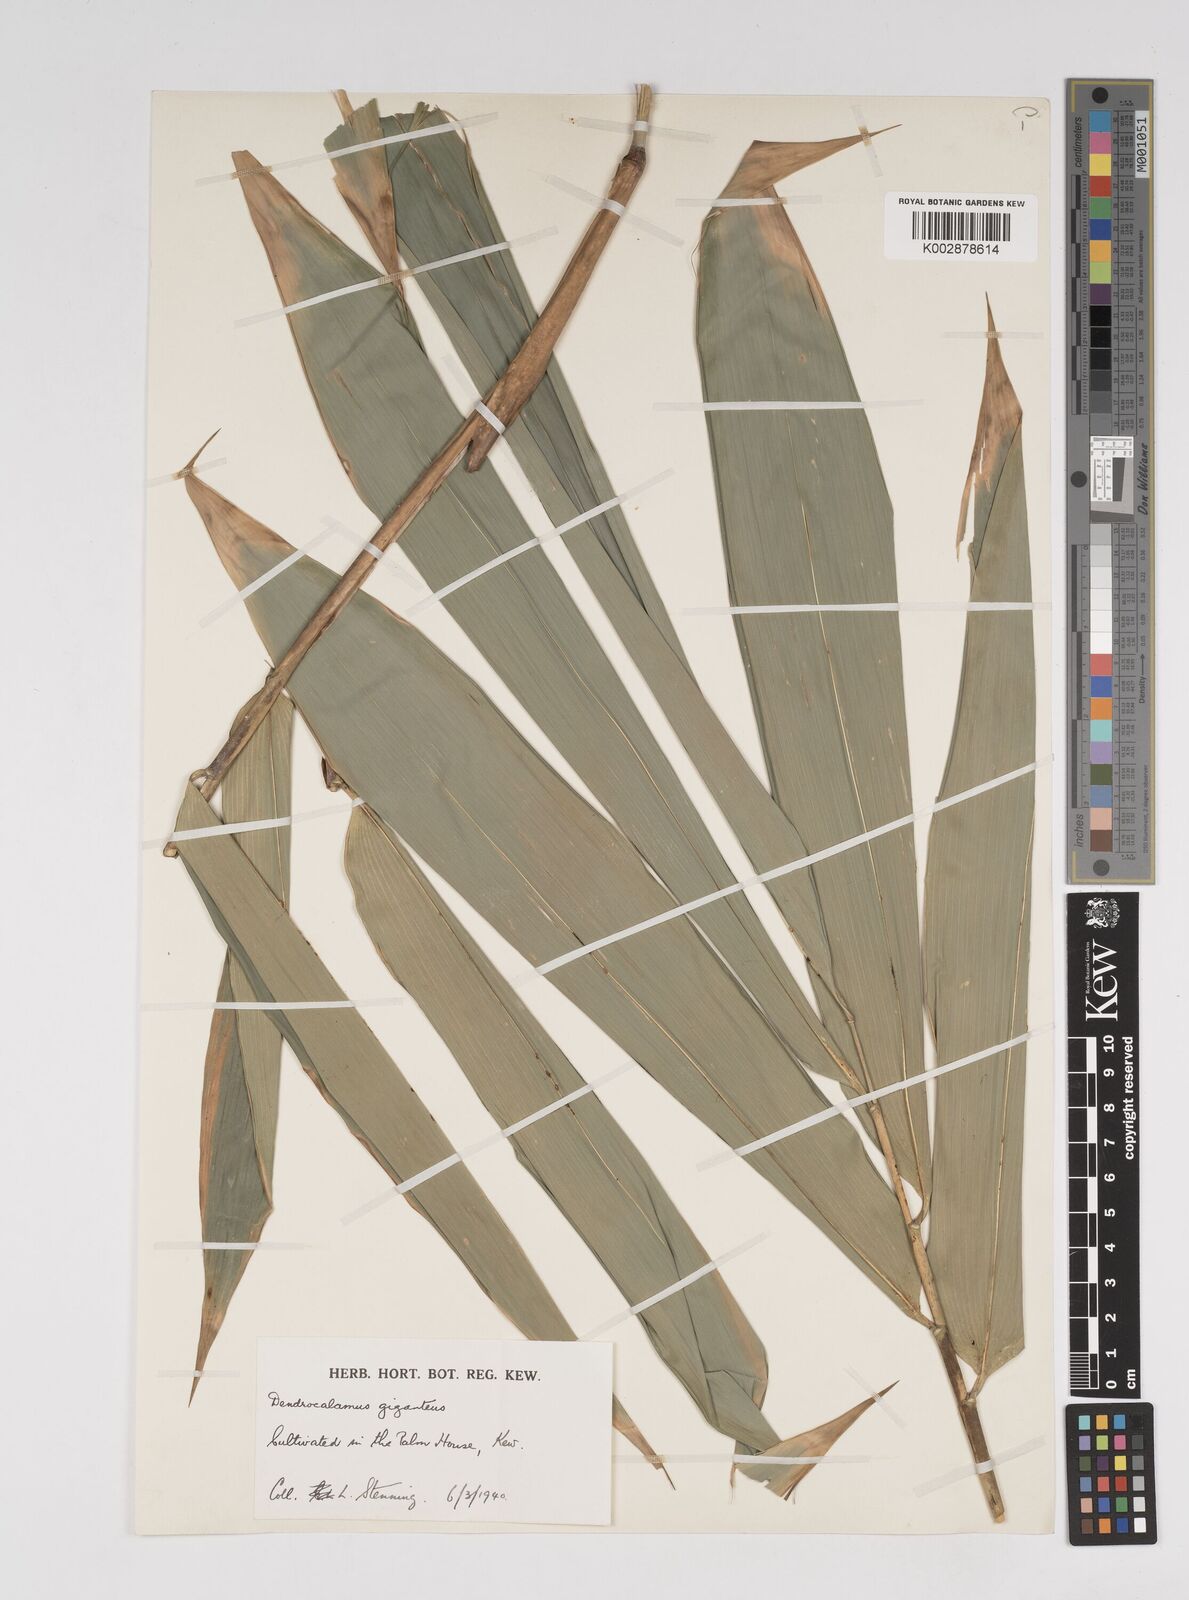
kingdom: Plantae
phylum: Tracheophyta
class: Liliopsida
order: Poales
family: Poaceae
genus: Dendrocalamus
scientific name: Dendrocalamus giganteus
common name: Giant bamboo
